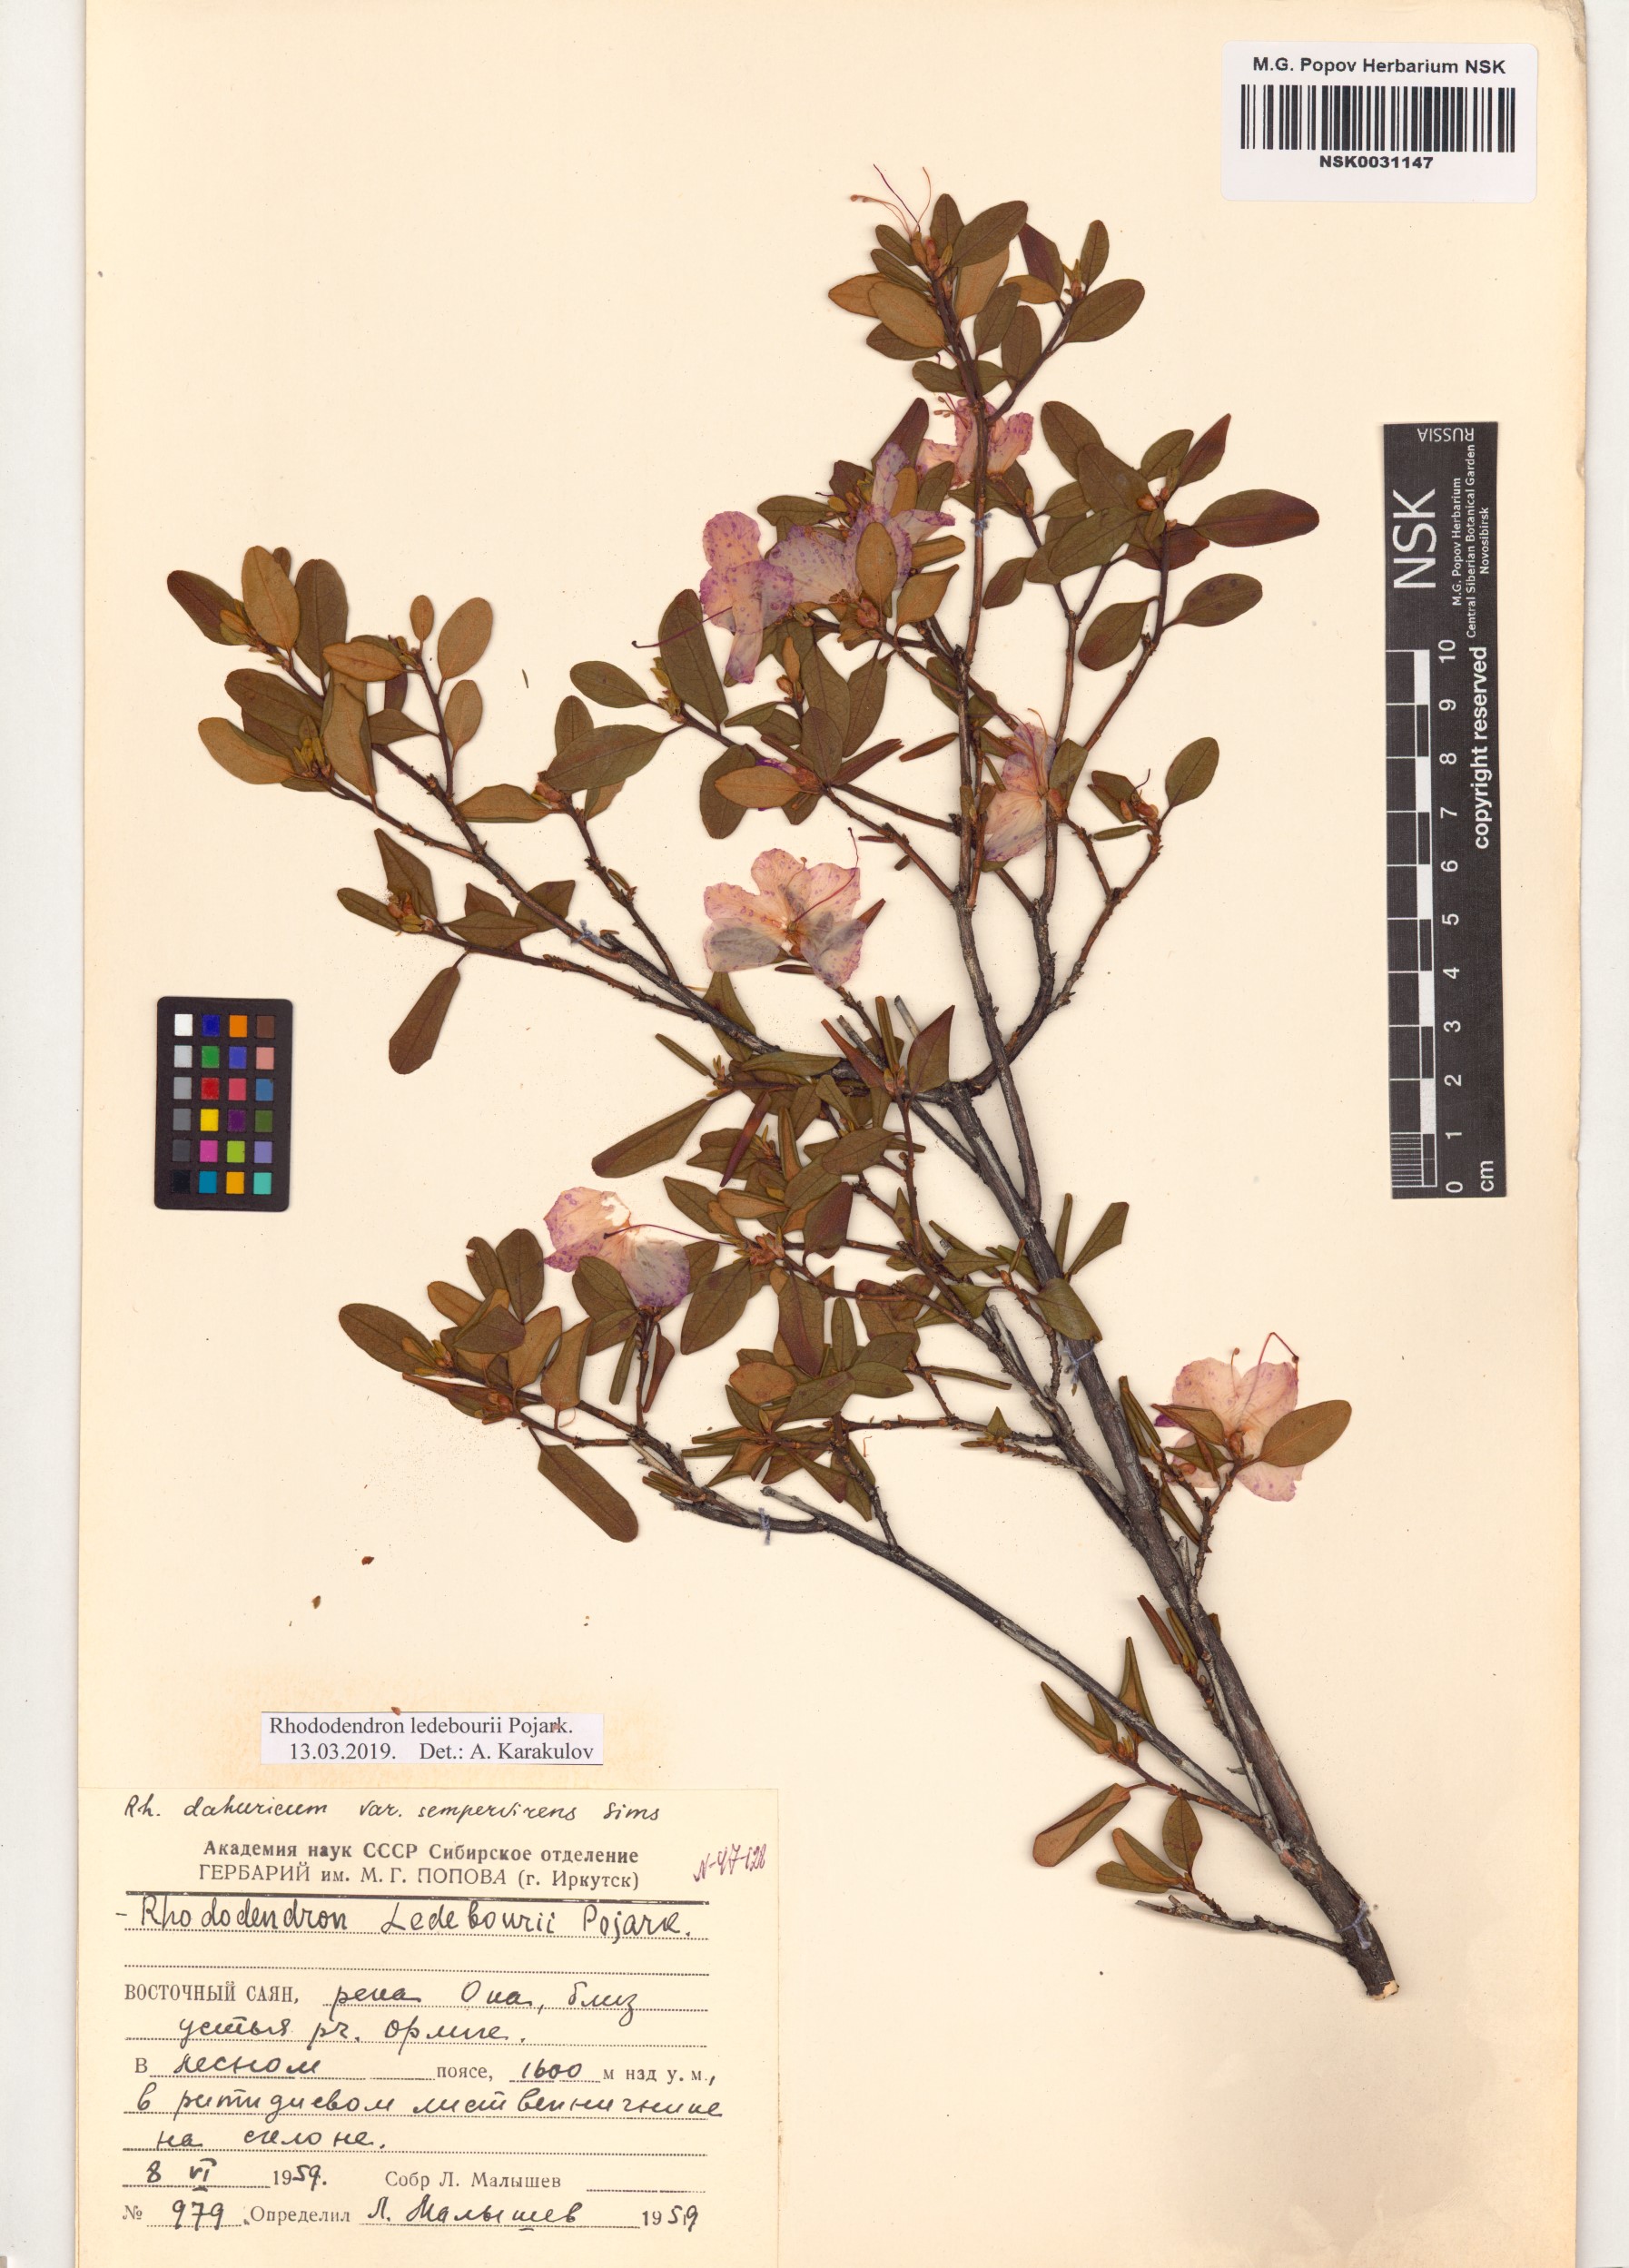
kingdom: Plantae
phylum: Tracheophyta
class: Magnoliopsida
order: Ericales
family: Ericaceae
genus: Rhododendron
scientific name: Rhododendron dauricum
